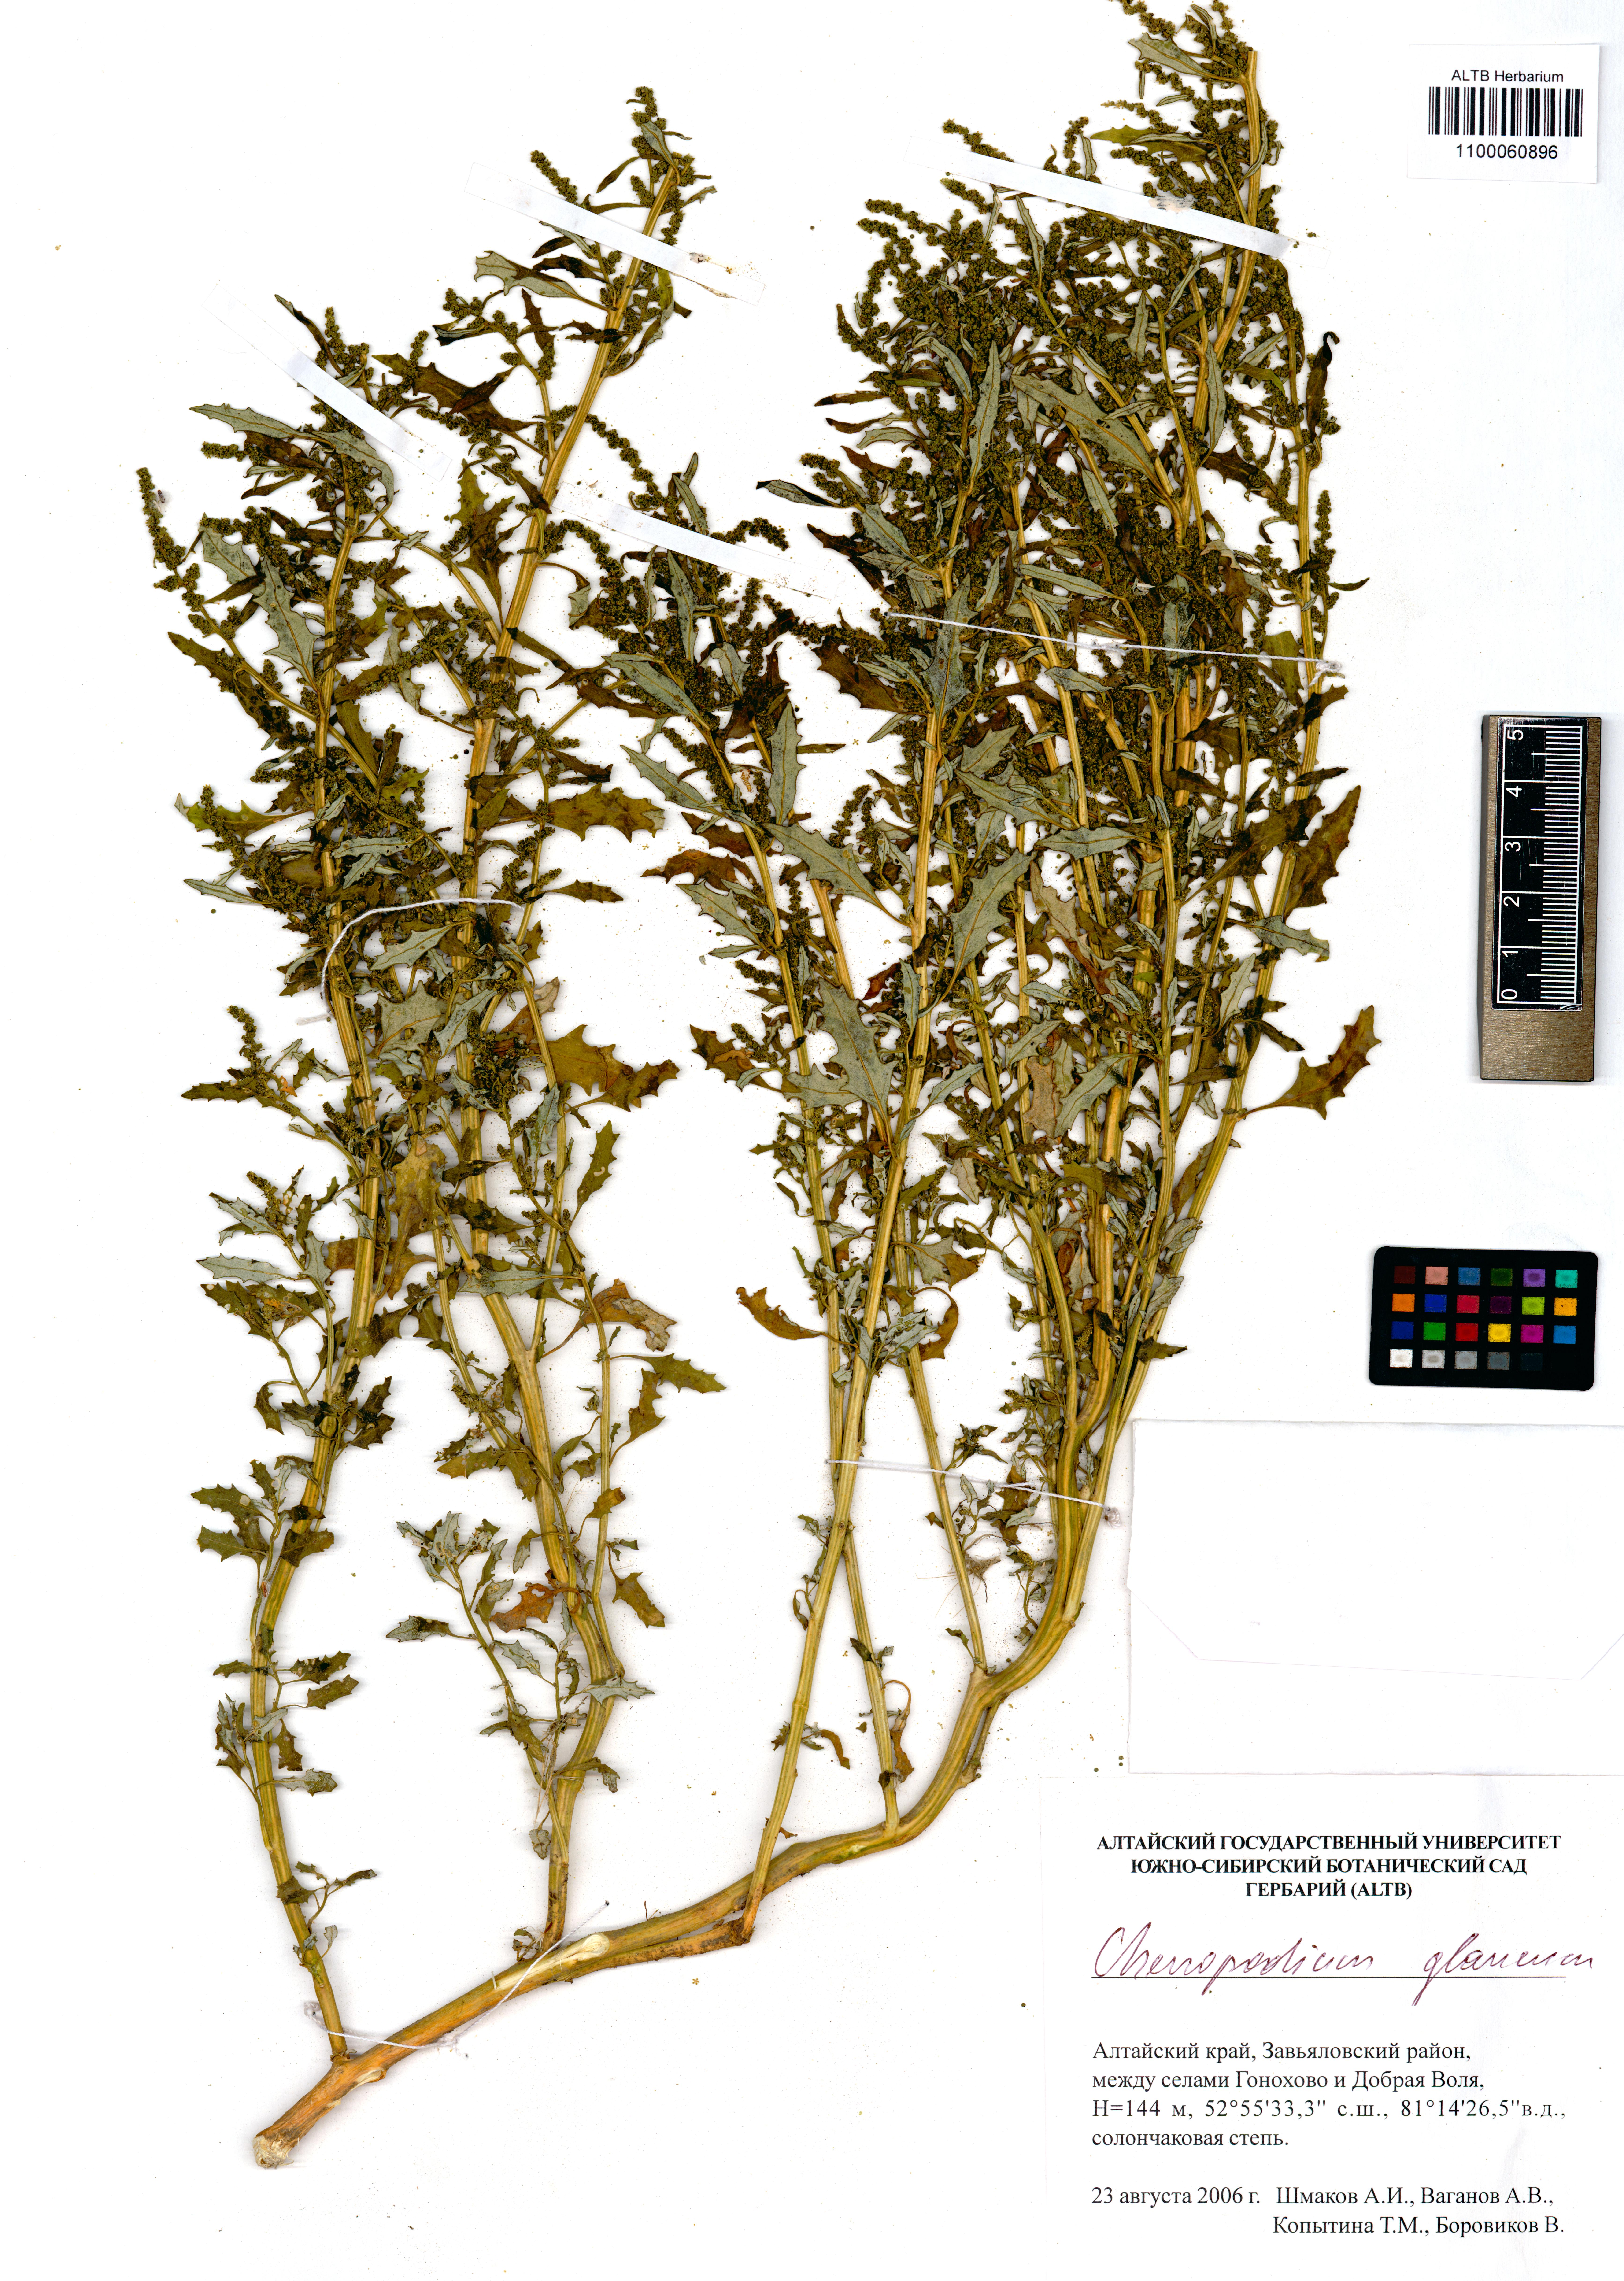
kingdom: Plantae
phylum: Tracheophyta
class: Magnoliopsida
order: Caryophyllales
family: Amaranthaceae
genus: Oxybasis
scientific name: Oxybasis glauca
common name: Glaucous goosefoot
